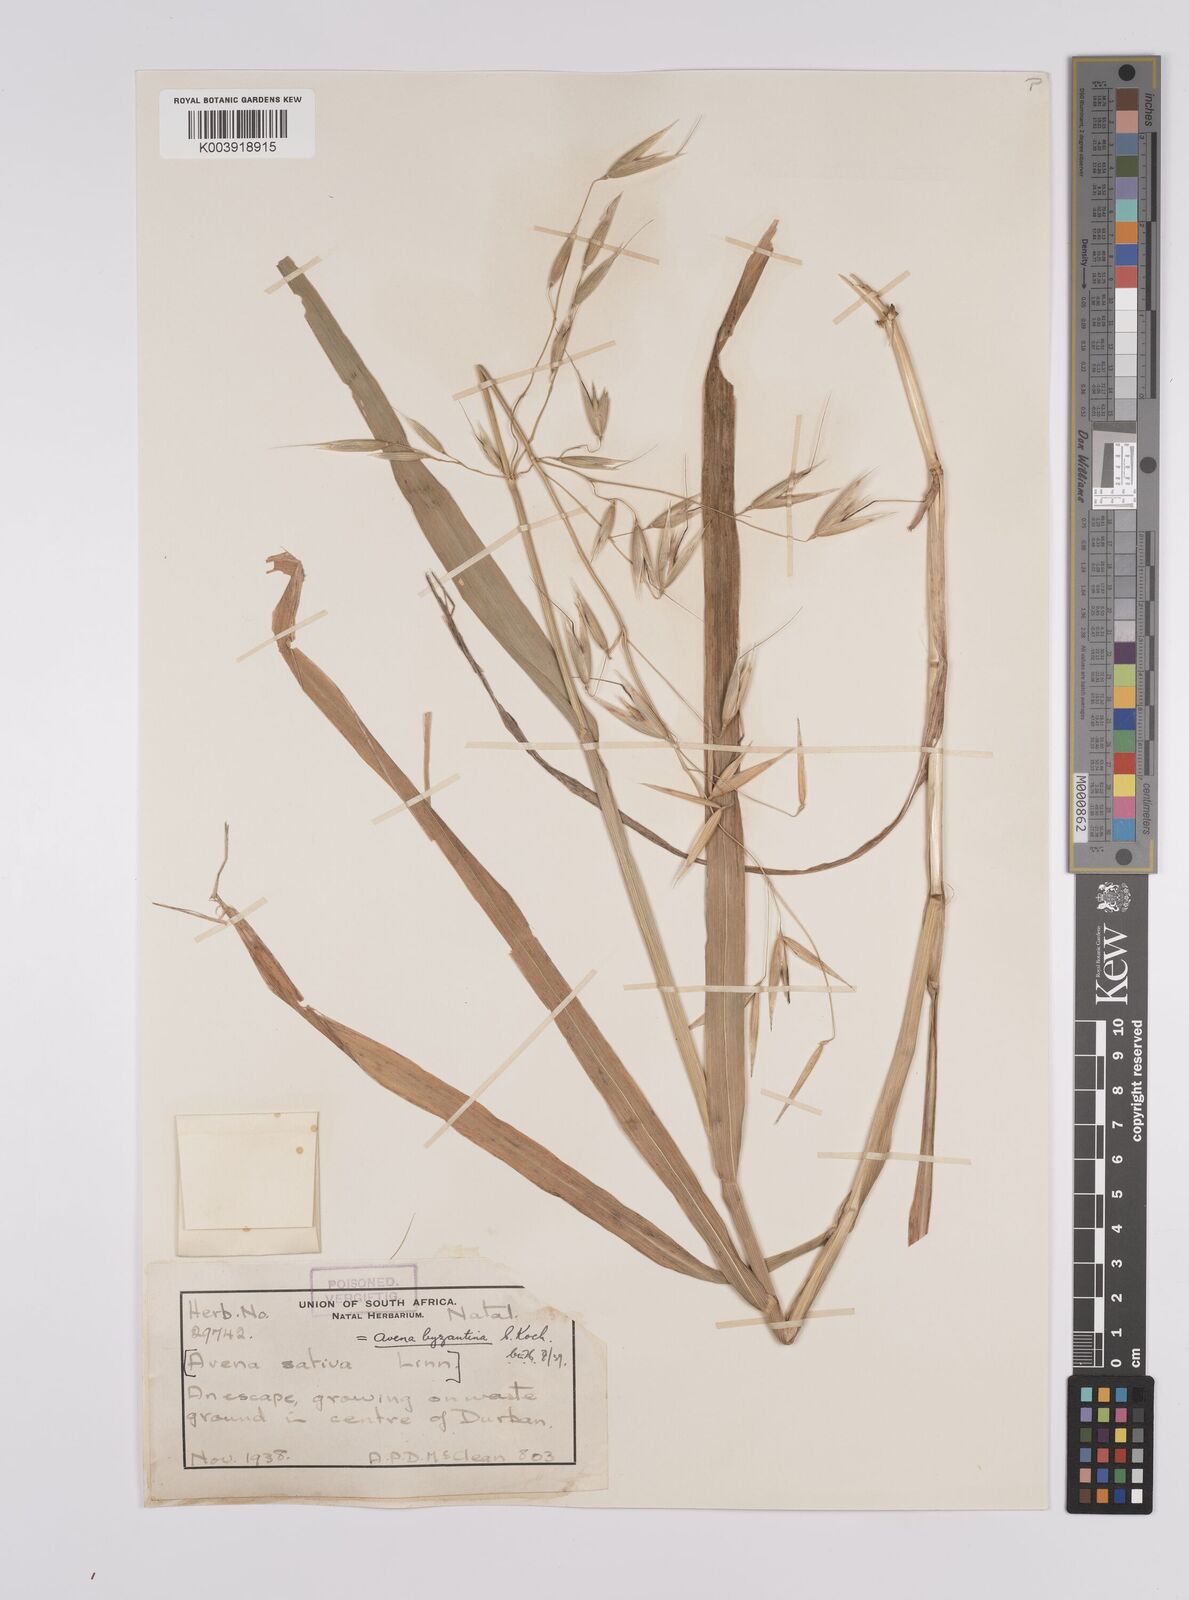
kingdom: Plantae
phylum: Tracheophyta
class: Liliopsida
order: Poales
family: Poaceae
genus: Avena
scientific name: Avena byzantina
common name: Algerian oat
